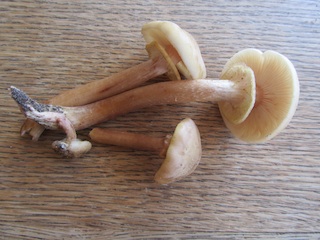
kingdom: Fungi
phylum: Basidiomycota
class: Agaricomycetes
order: Agaricales
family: Physalacriaceae
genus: Armillaria
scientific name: Armillaria mellea
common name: ægte honningsvamp
